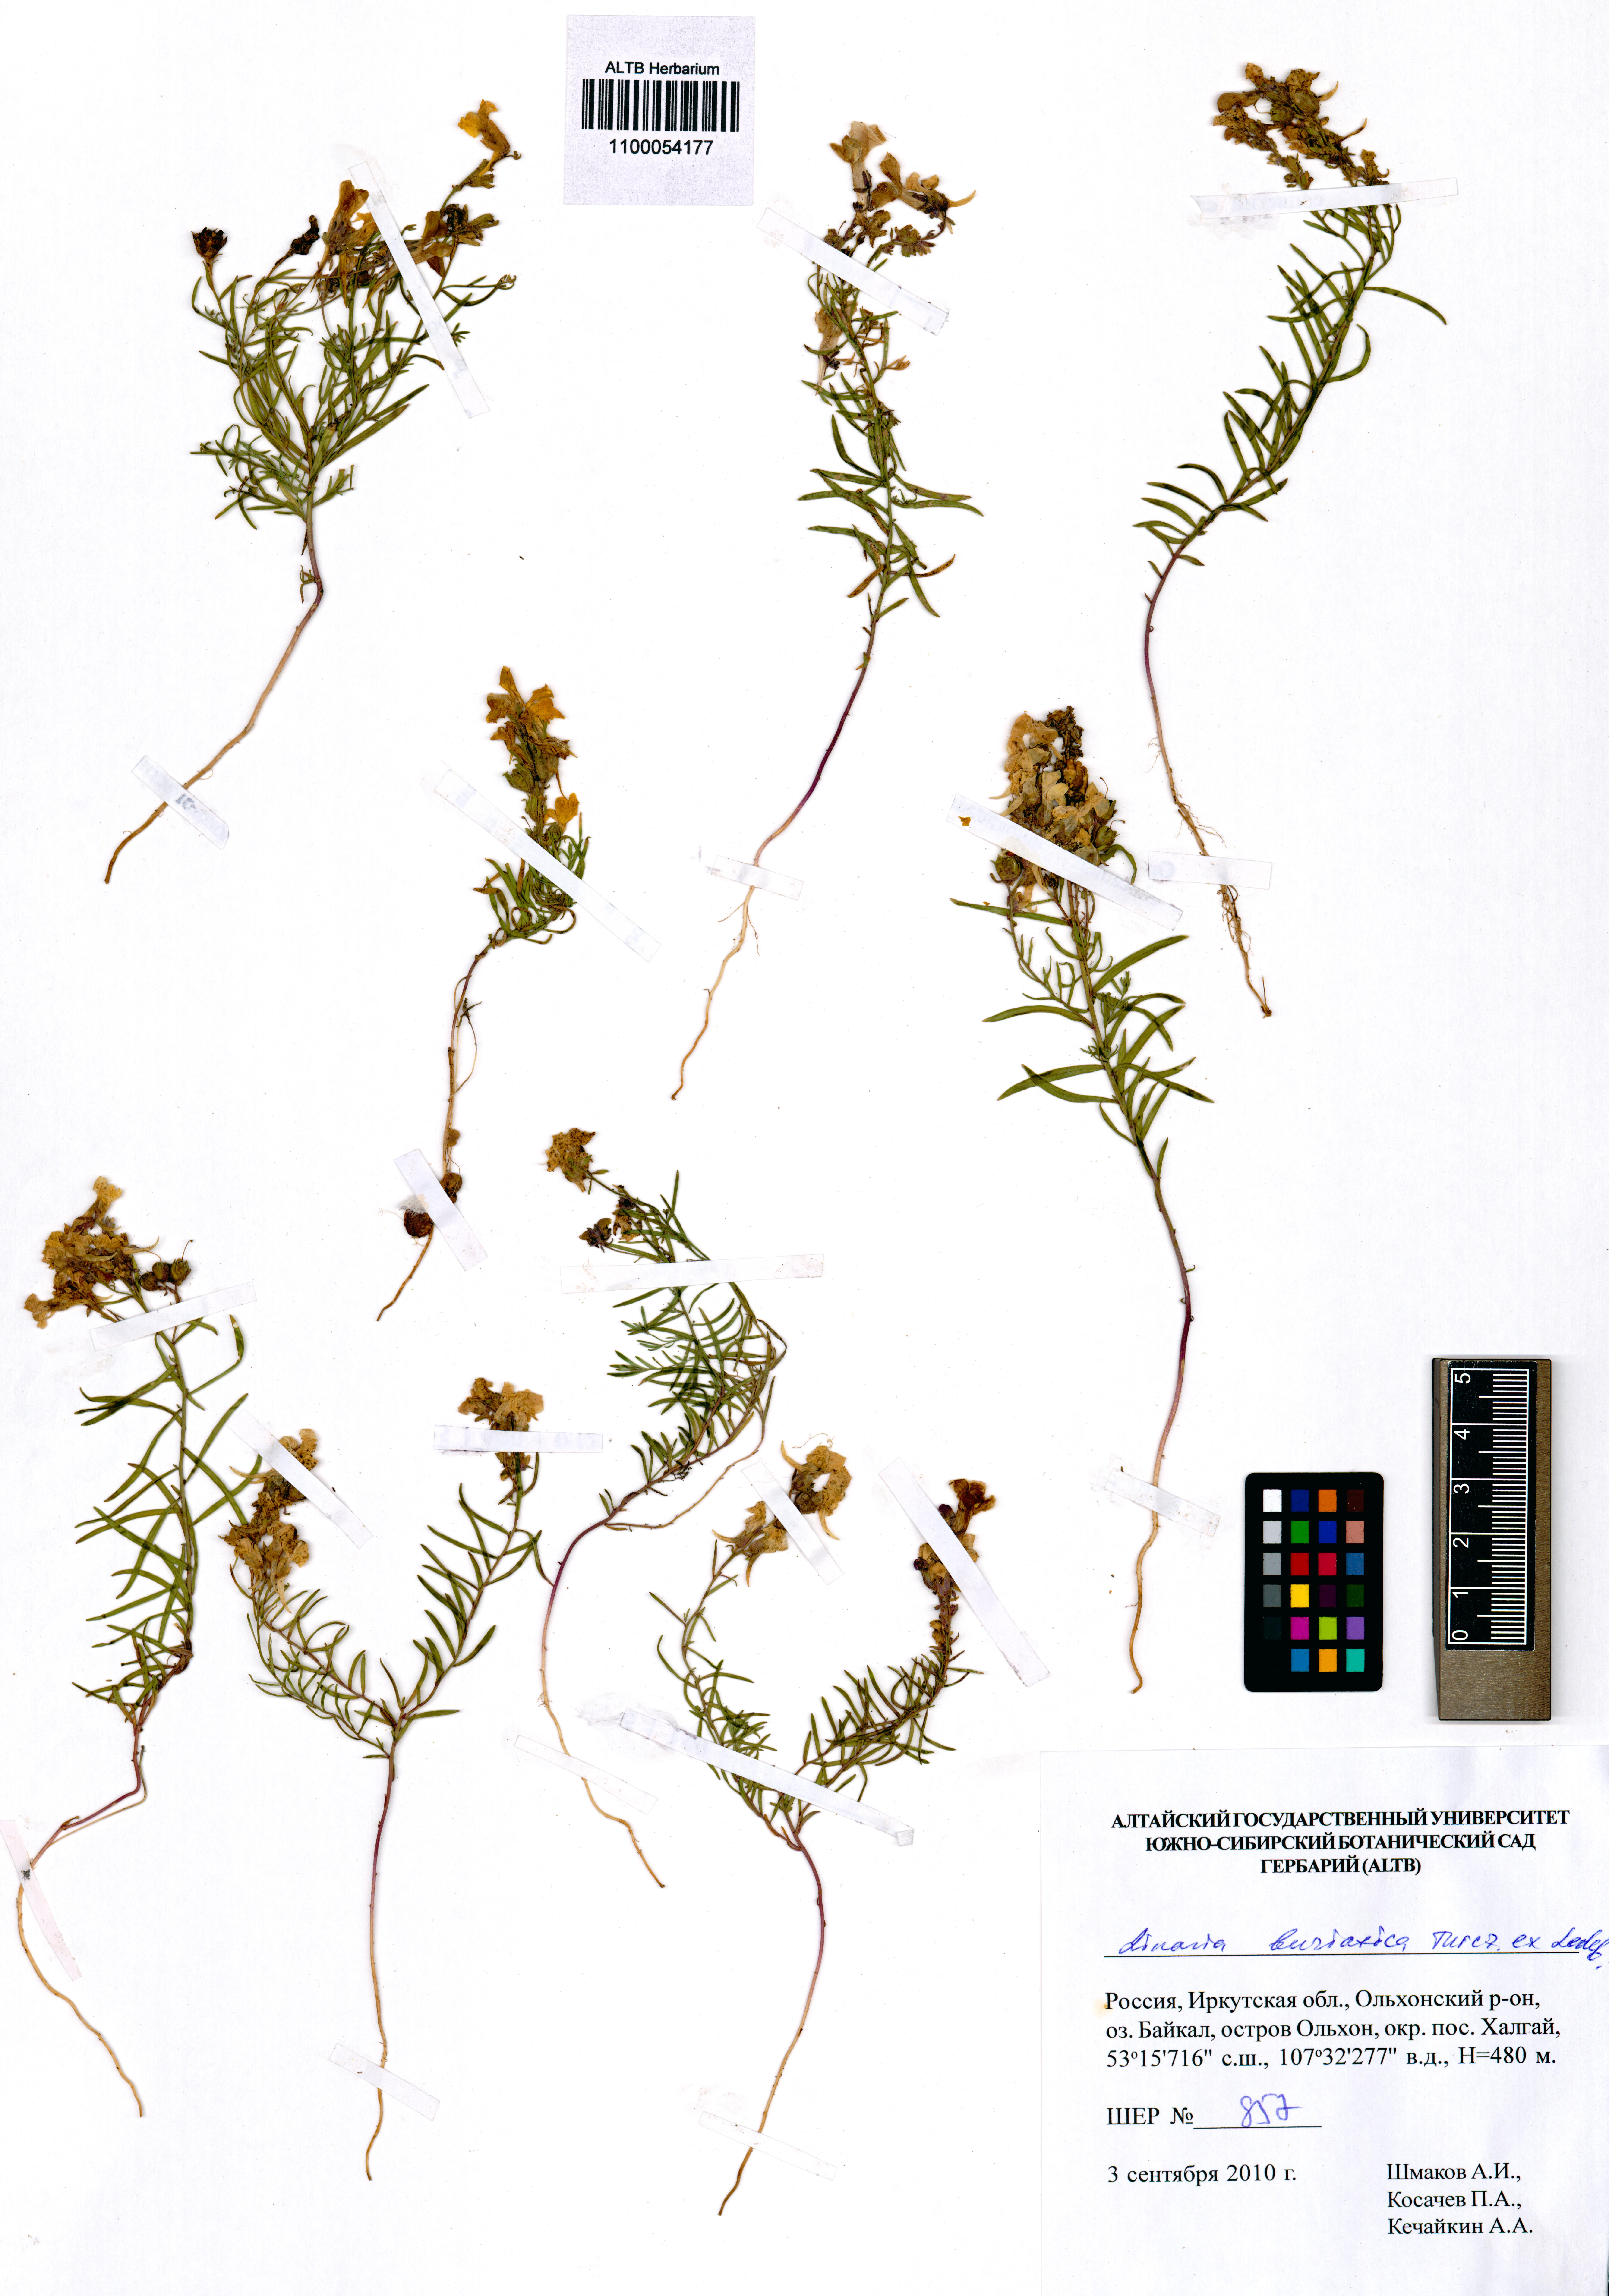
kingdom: Plantae
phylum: Tracheophyta
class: Magnoliopsida
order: Lamiales
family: Plantaginaceae
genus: Linaria
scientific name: Linaria buriatica
